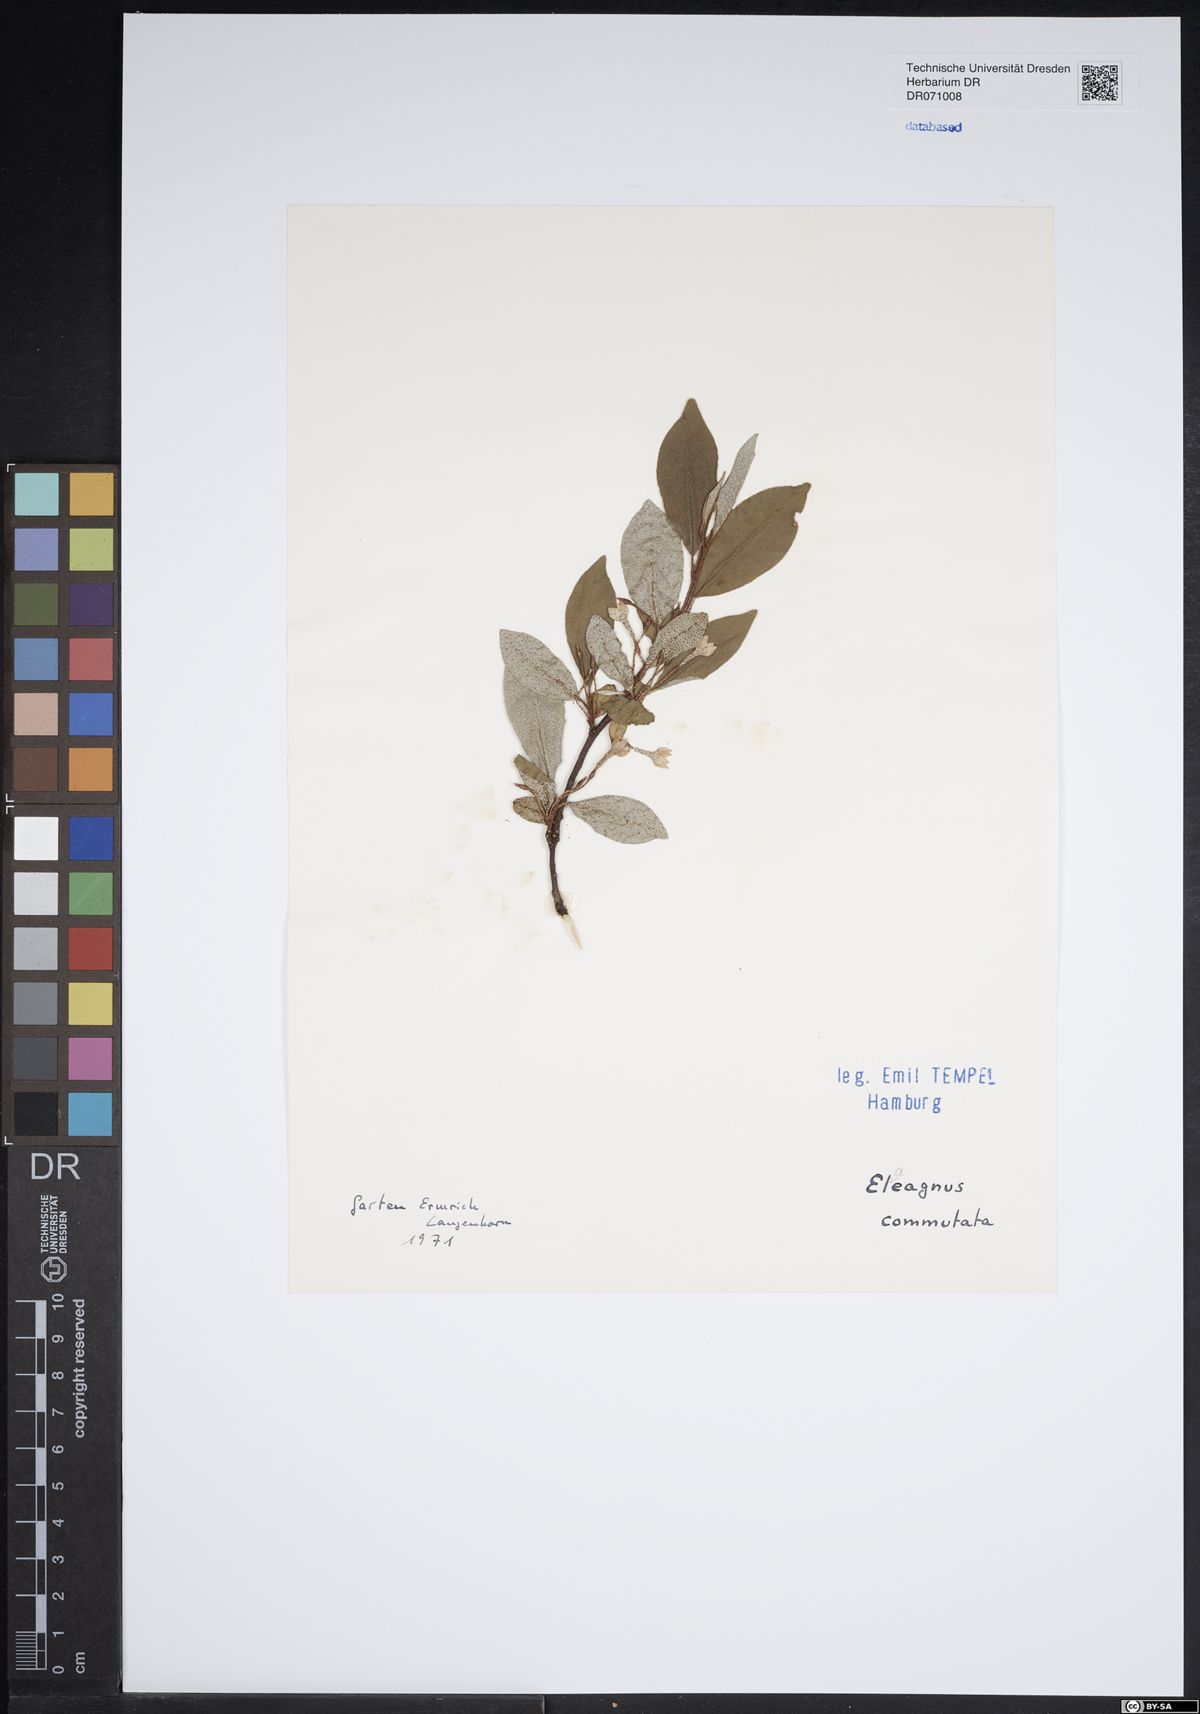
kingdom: Plantae
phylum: Tracheophyta
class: Magnoliopsida
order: Rosales
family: Elaeagnaceae
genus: Elaeagnus
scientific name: Elaeagnus commutata
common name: Silverberry
